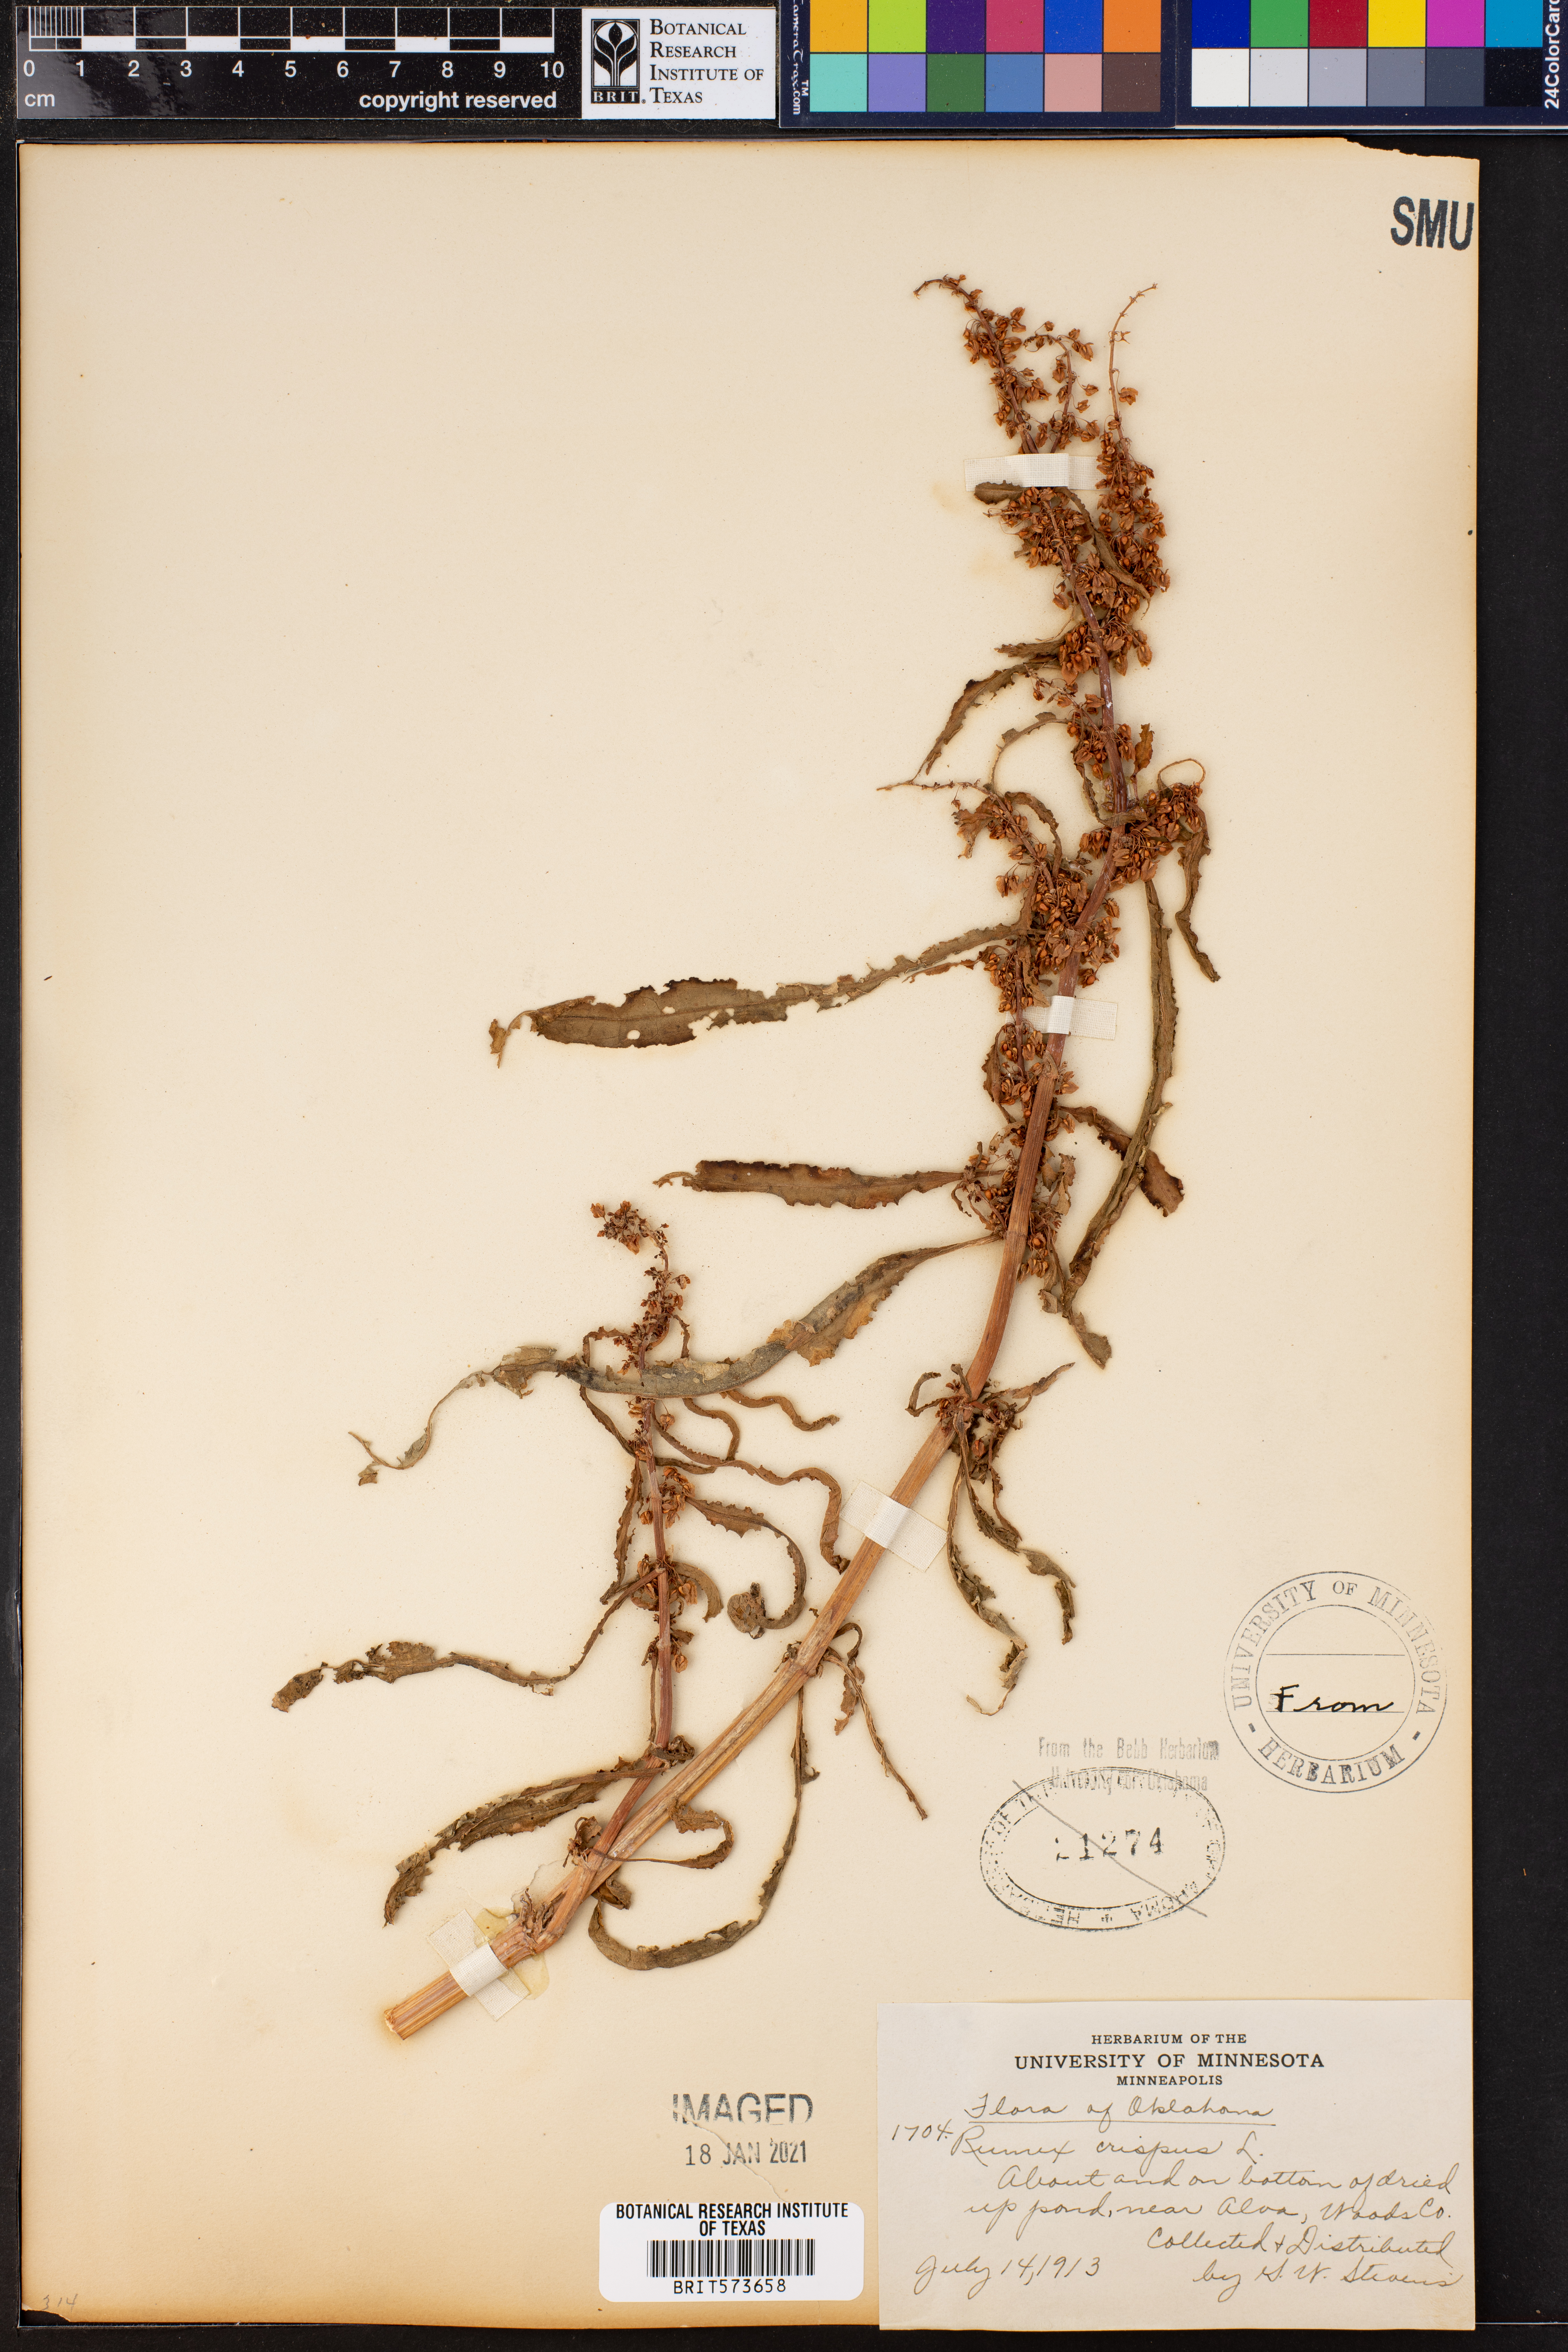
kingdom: Plantae
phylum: Tracheophyta
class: Magnoliopsida
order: Caryophyllales
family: Polygonaceae
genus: Rumex
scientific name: Rumex crispus
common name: Curled dock
